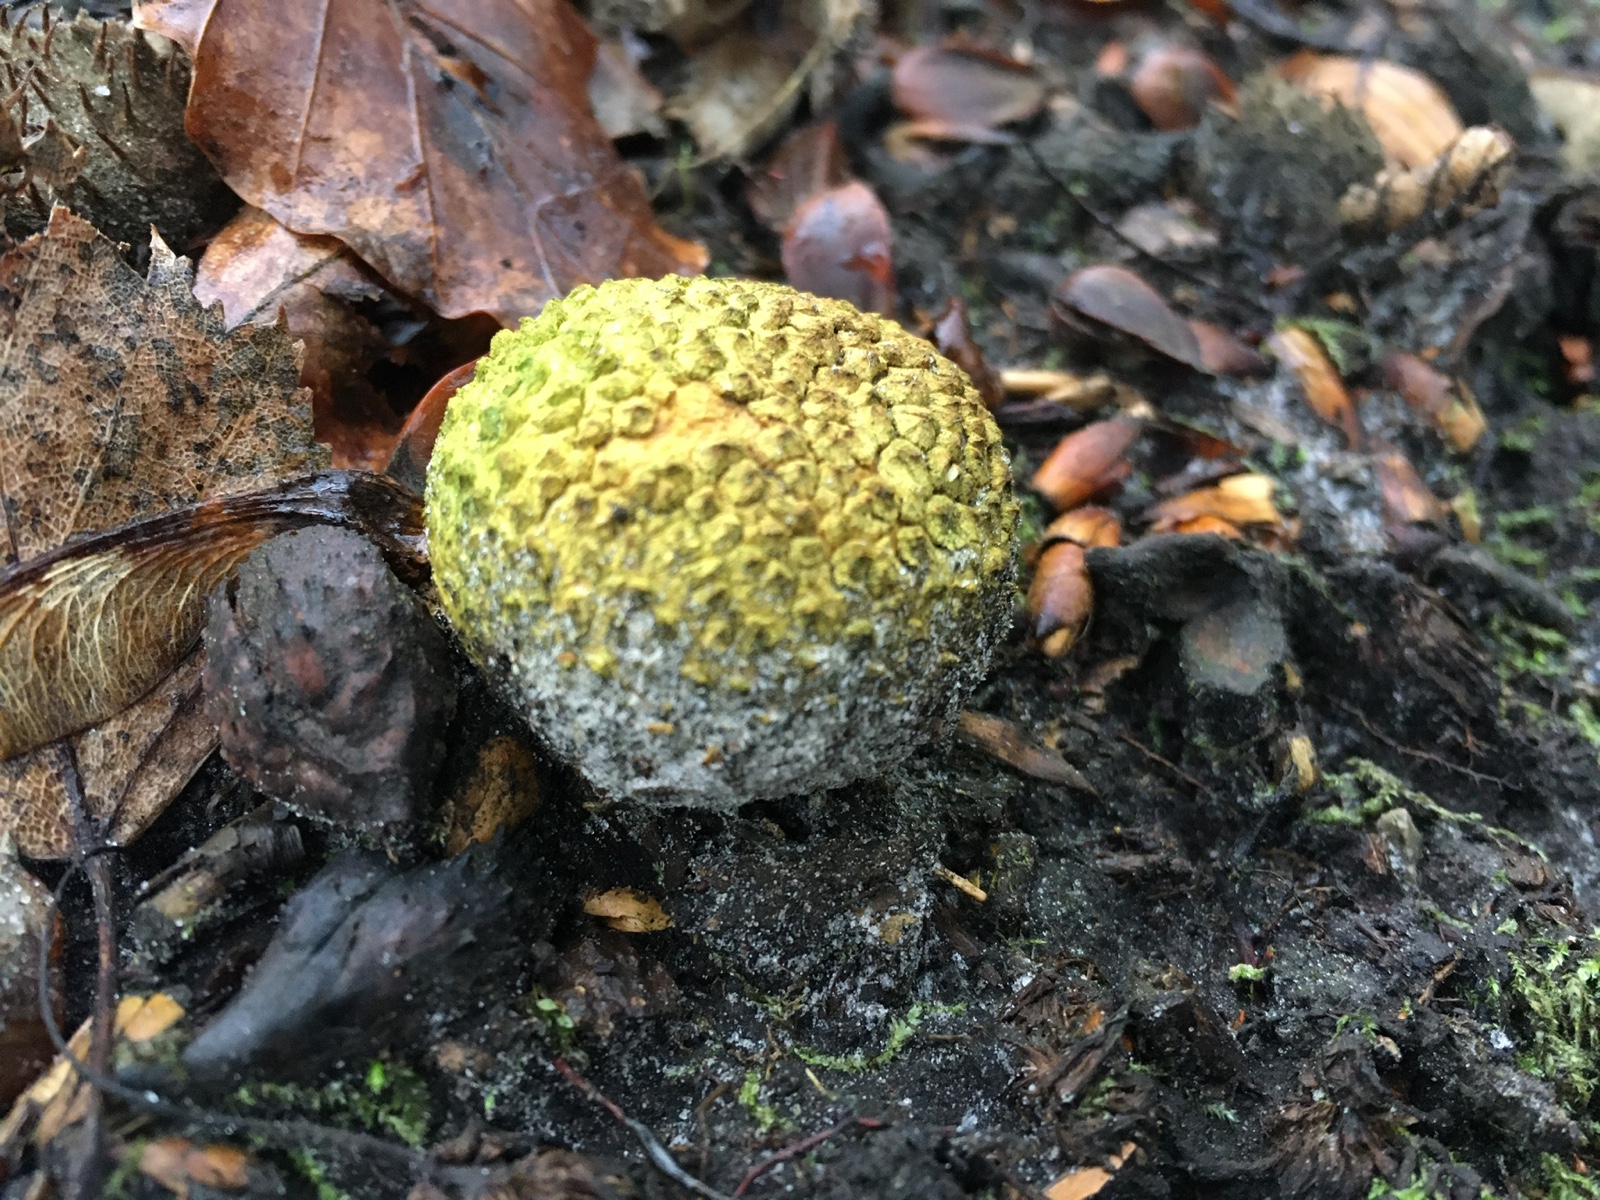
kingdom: Fungi
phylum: Basidiomycota
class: Agaricomycetes
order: Boletales
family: Sclerodermataceae
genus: Scleroderma
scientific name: Scleroderma citrinum
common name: almindelig bruskbold
